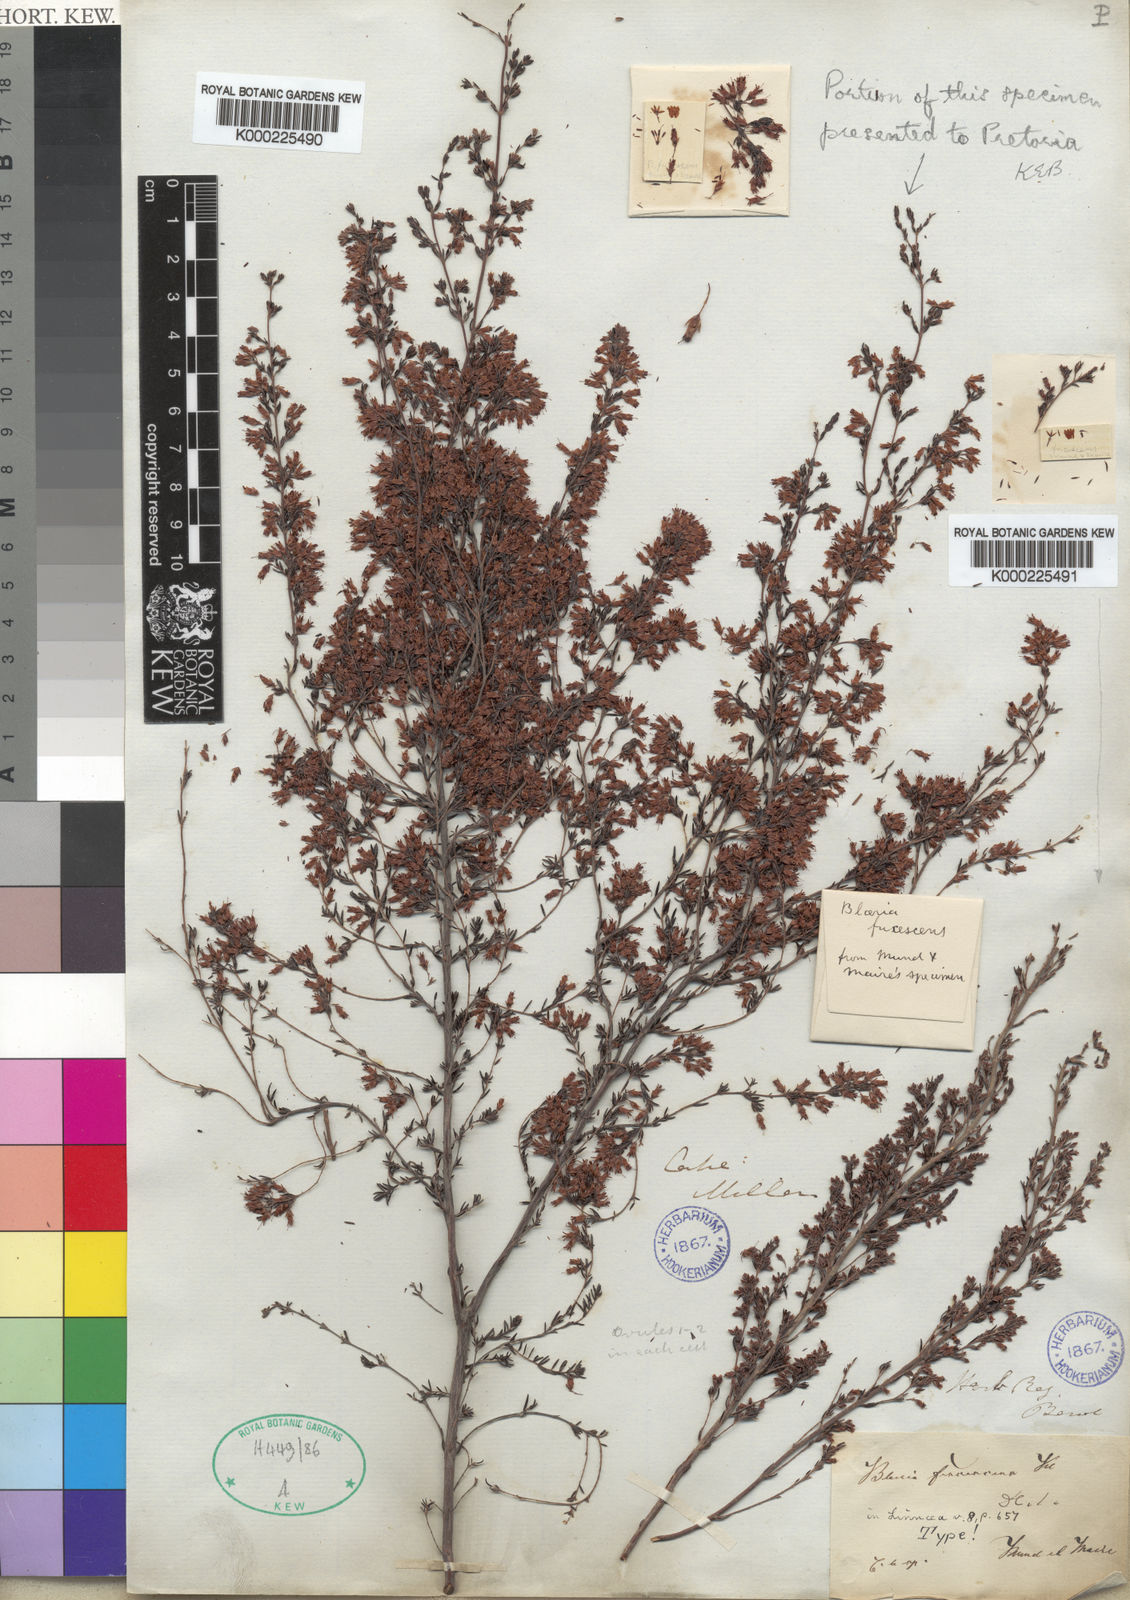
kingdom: Plantae
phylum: Tracheophyta
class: Magnoliopsida
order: Ericales
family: Ericaceae
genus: Erica
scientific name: Erica fuscescens
